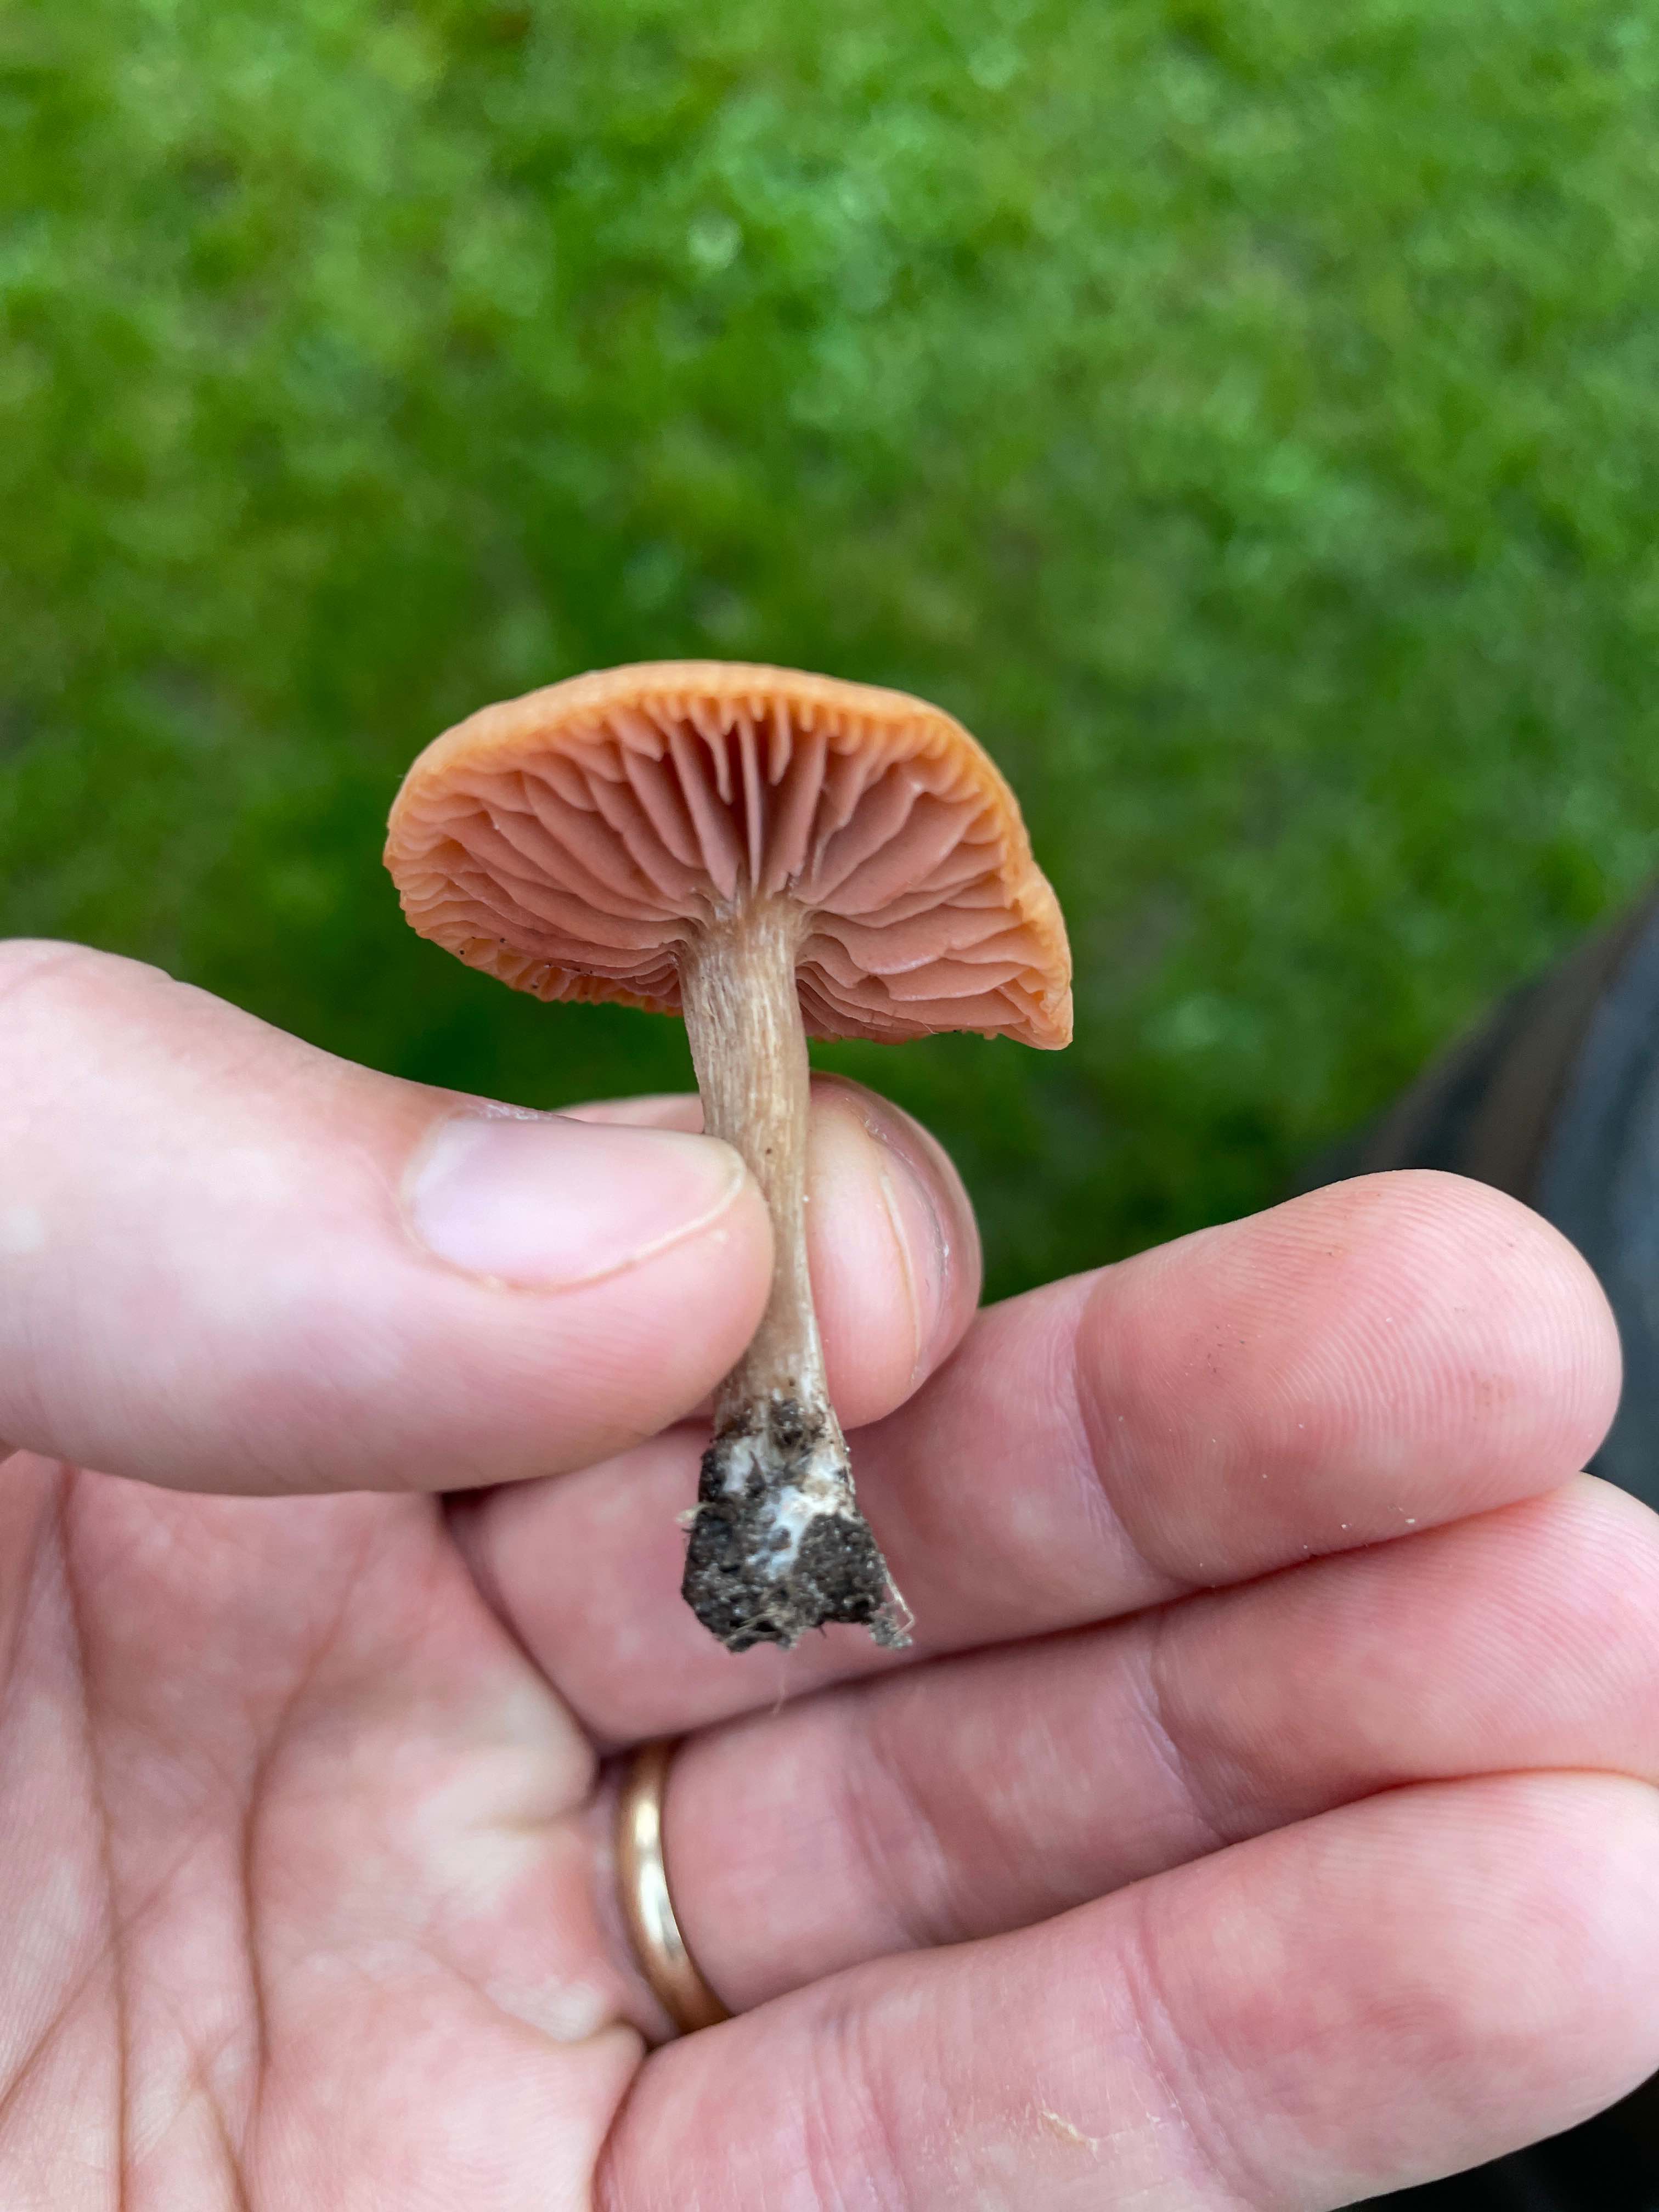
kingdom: Fungi
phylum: Basidiomycota
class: Agaricomycetes
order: Agaricales
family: Hydnangiaceae
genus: Laccaria
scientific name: Laccaria laccata
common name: rød ametysthat
